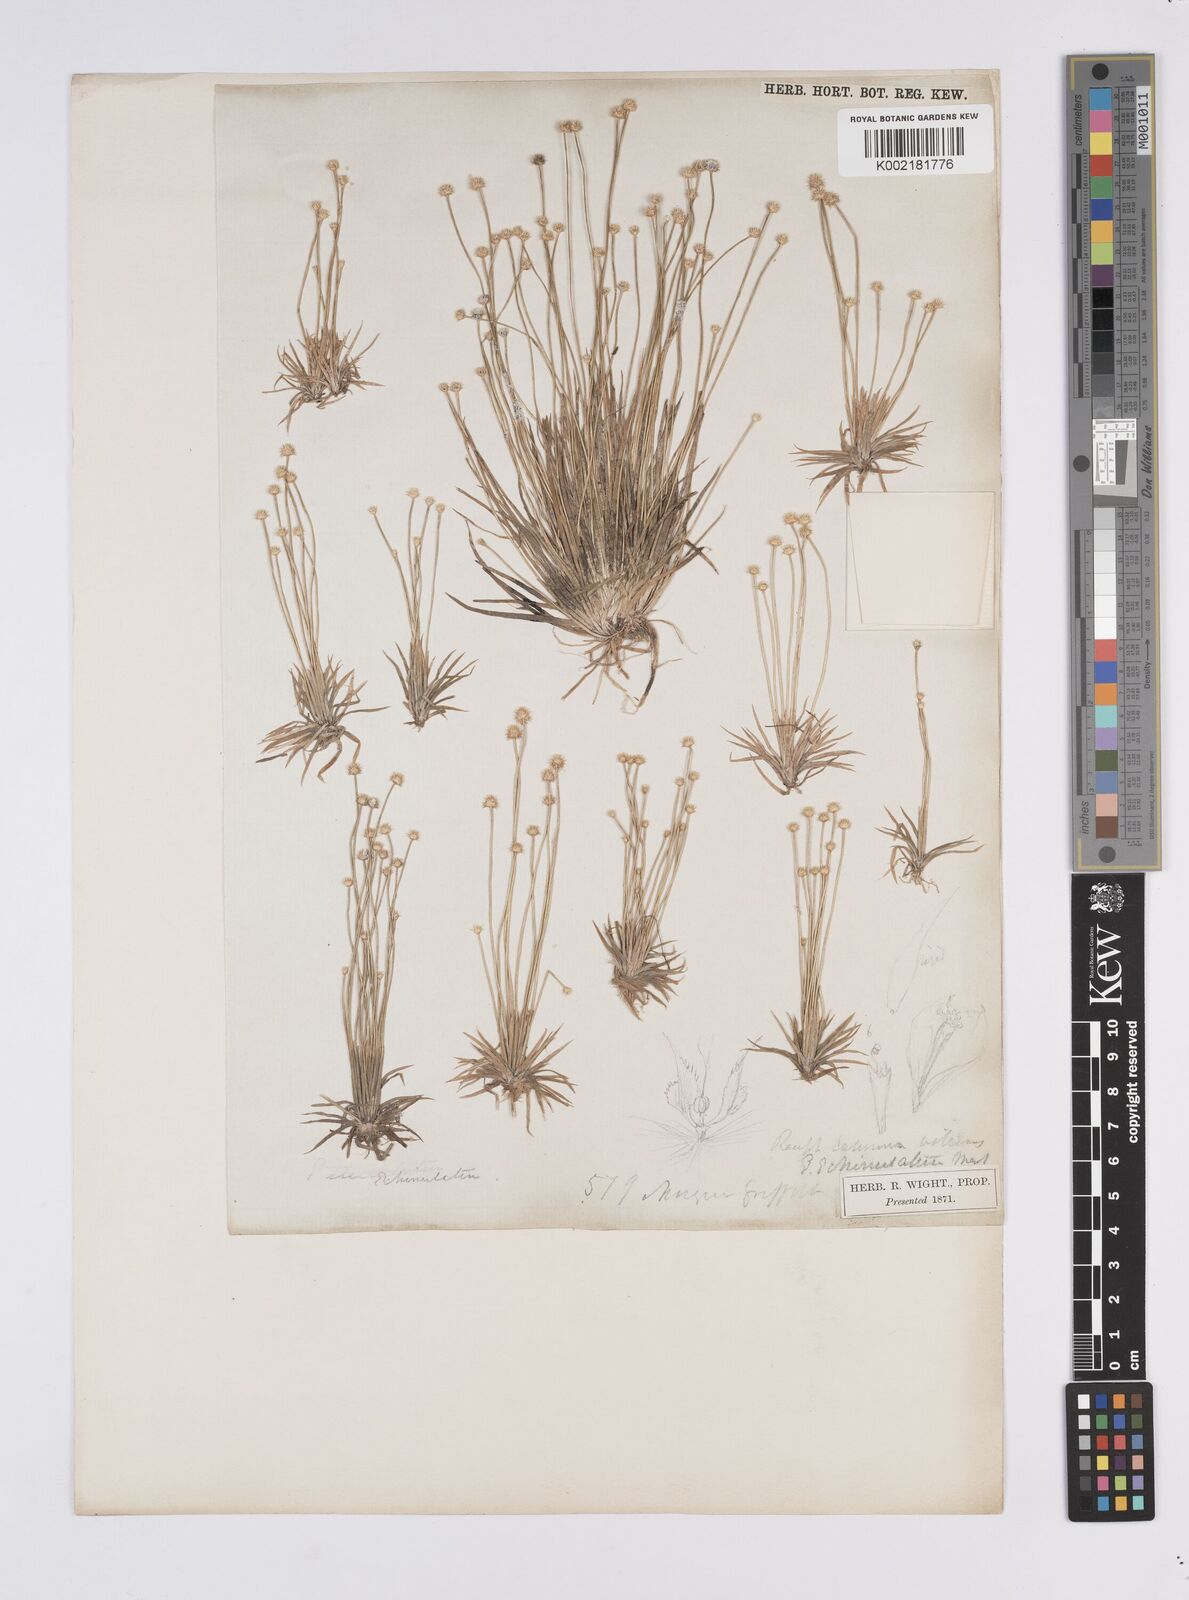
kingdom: Plantae
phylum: Tracheophyta
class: Liliopsida
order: Poales
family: Eriocaulaceae
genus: Eriocaulon
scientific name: Eriocaulon echinulatum
